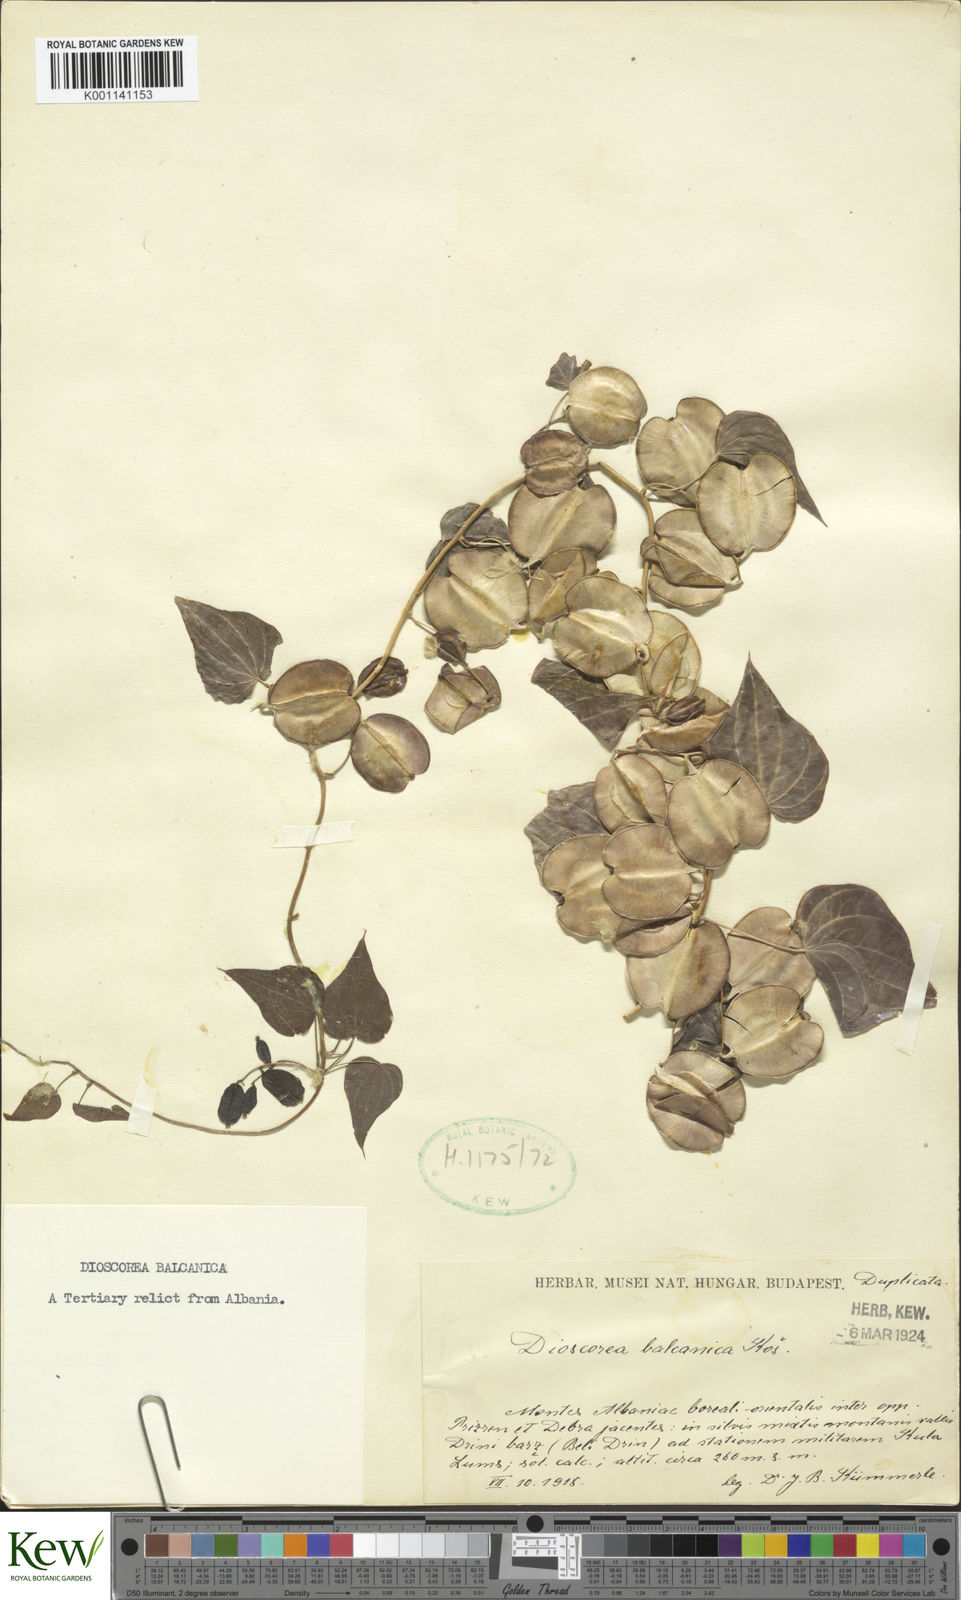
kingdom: Plantae
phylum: Tracheophyta
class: Liliopsida
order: Dioscoreales
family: Dioscoreaceae
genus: Dioscorea
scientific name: Dioscorea
